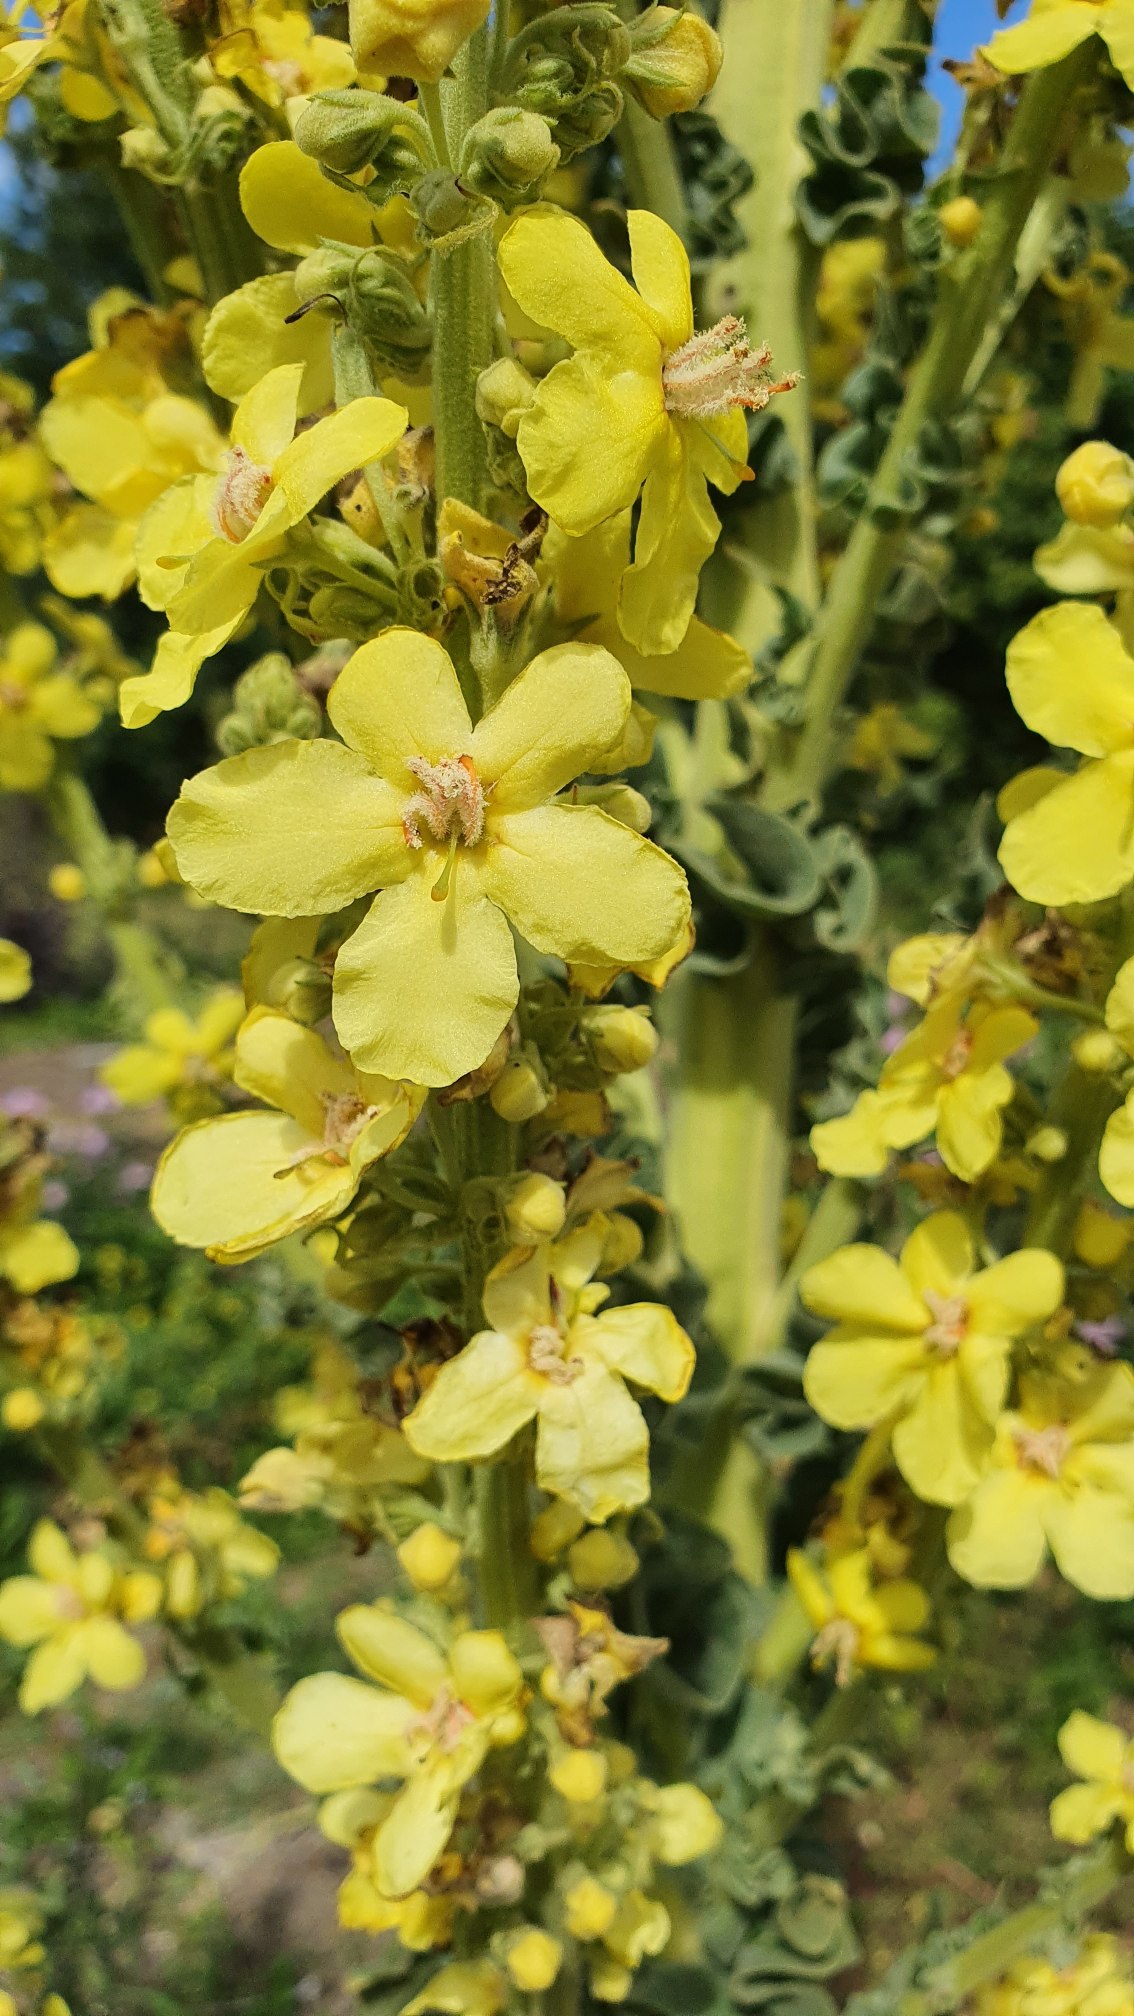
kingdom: Plantae
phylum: Tracheophyta
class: Magnoliopsida
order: Lamiales
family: Scrophulariaceae
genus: Verbascum
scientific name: Verbascum speciosum
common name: Kandelaber-kongelys
